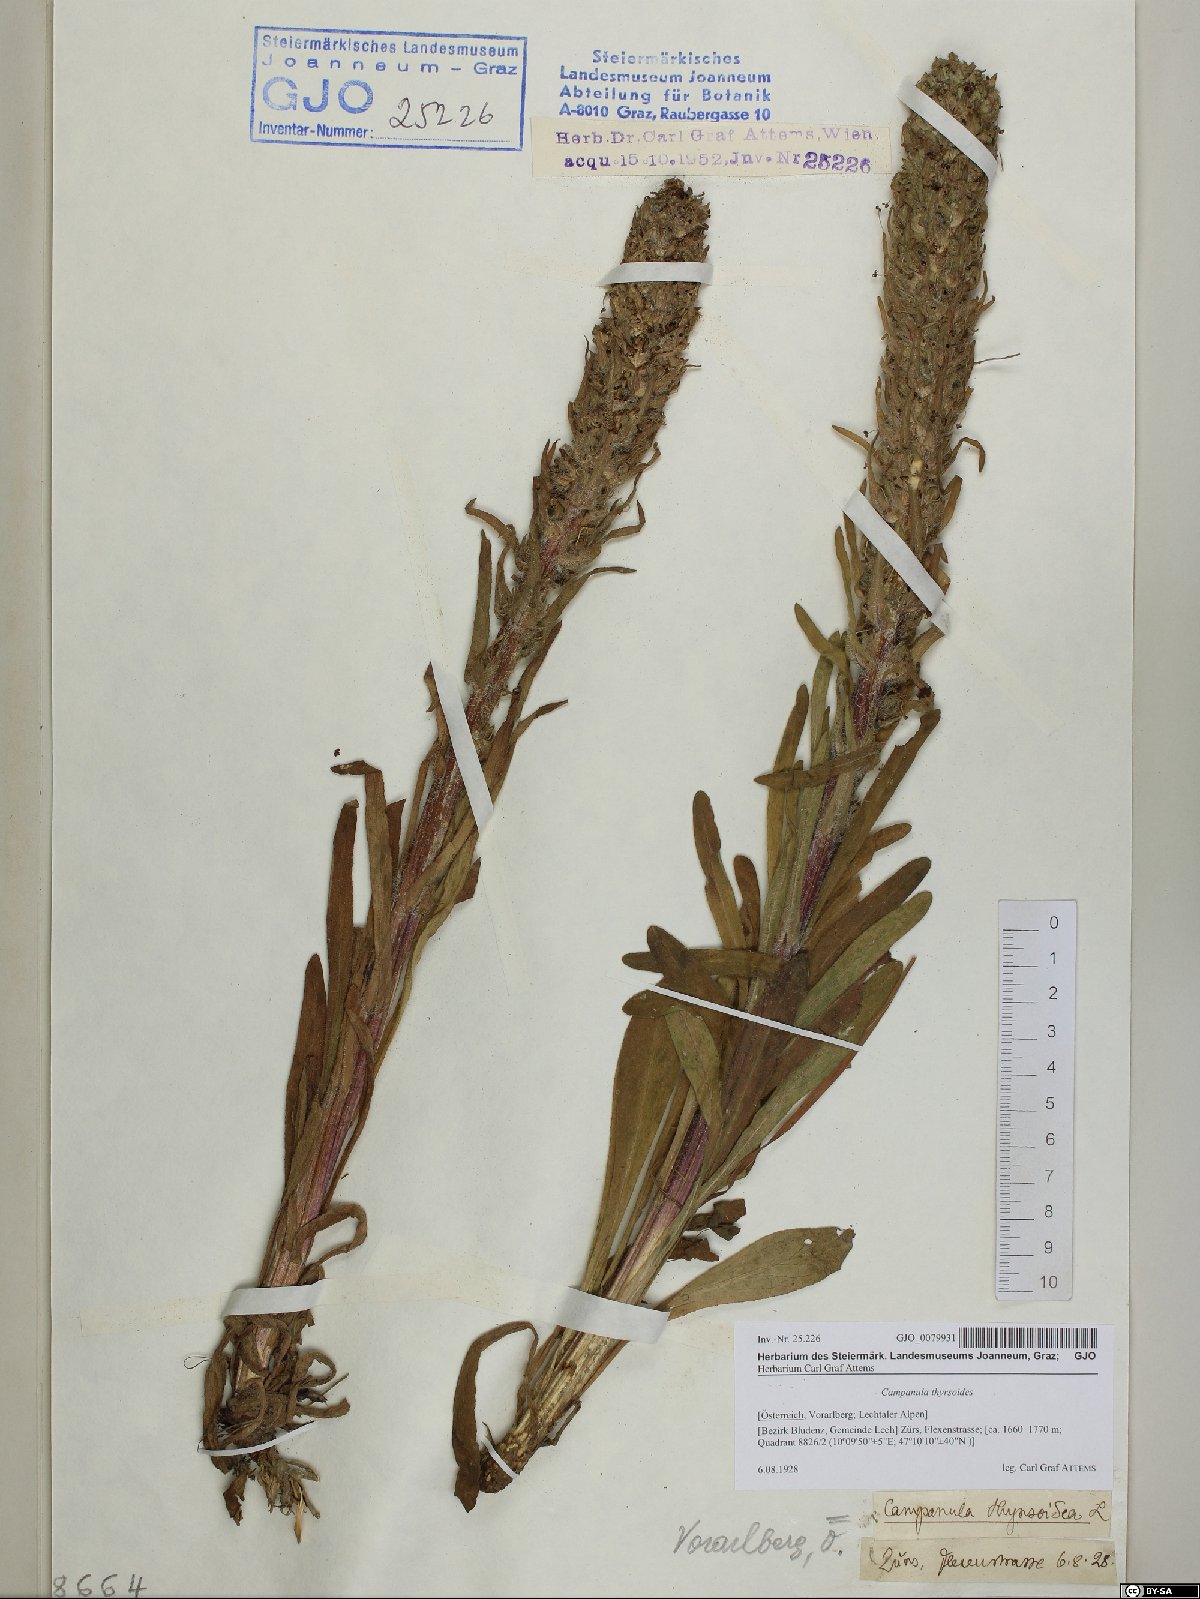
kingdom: Plantae
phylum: Tracheophyta
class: Magnoliopsida
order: Asterales
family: Campanulaceae
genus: Campanula
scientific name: Campanula thyrsoides
